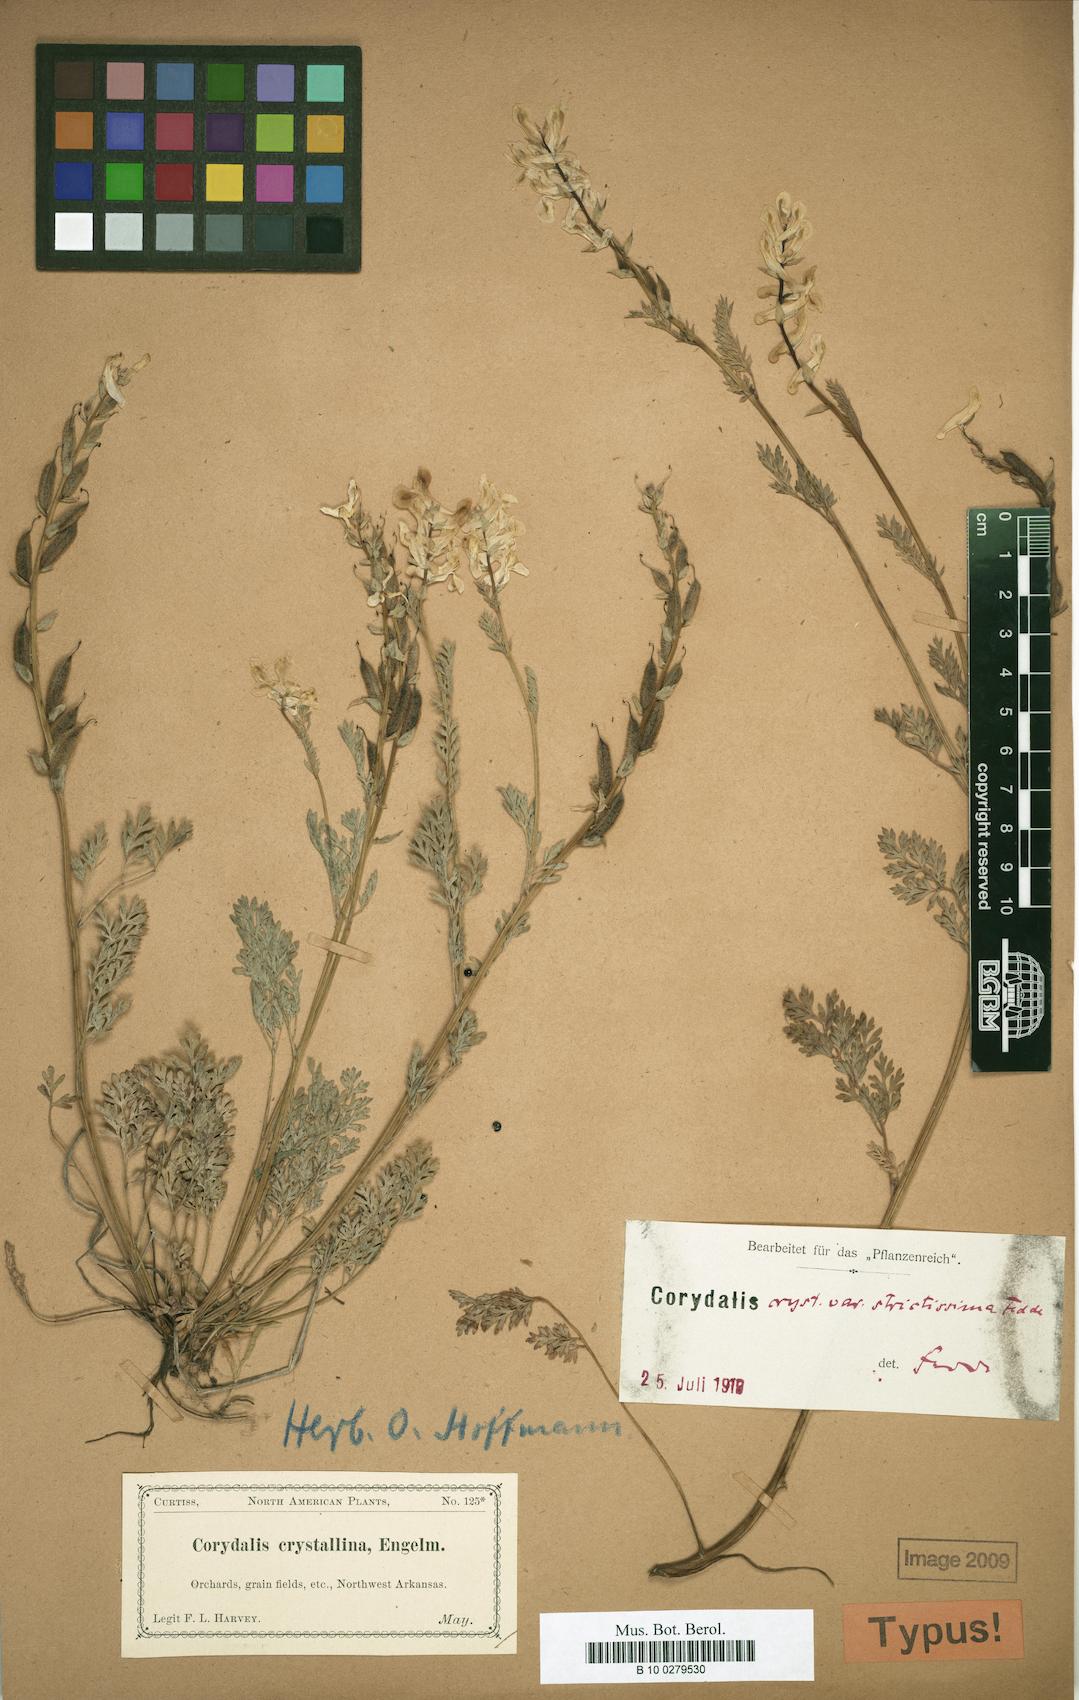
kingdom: Plantae
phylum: Tracheophyta
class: Magnoliopsida
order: Ranunculales
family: Papaveraceae
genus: Corydalis
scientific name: Corydalis crystallina
